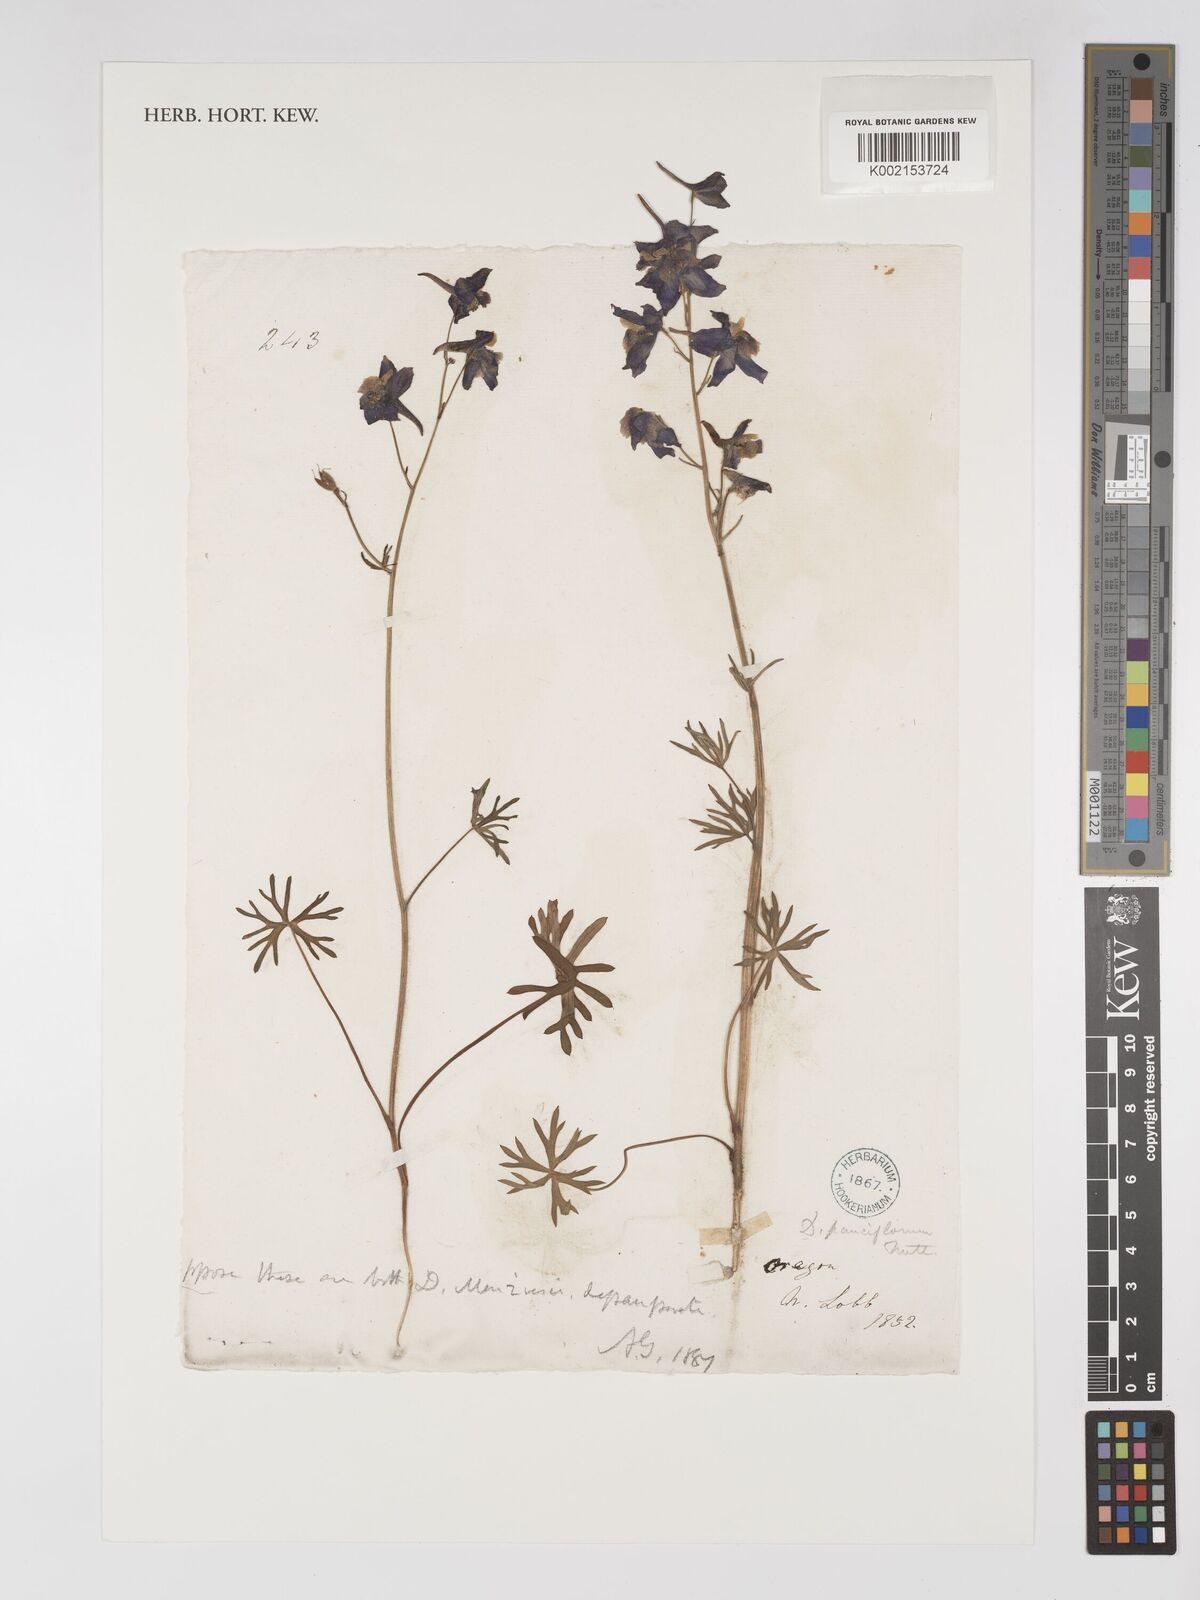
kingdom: Plantae
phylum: Tracheophyta
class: Magnoliopsida
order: Ranunculales
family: Ranunculaceae
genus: Delphinium
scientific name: Delphinium menziesii
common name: Menzies's larkspur
